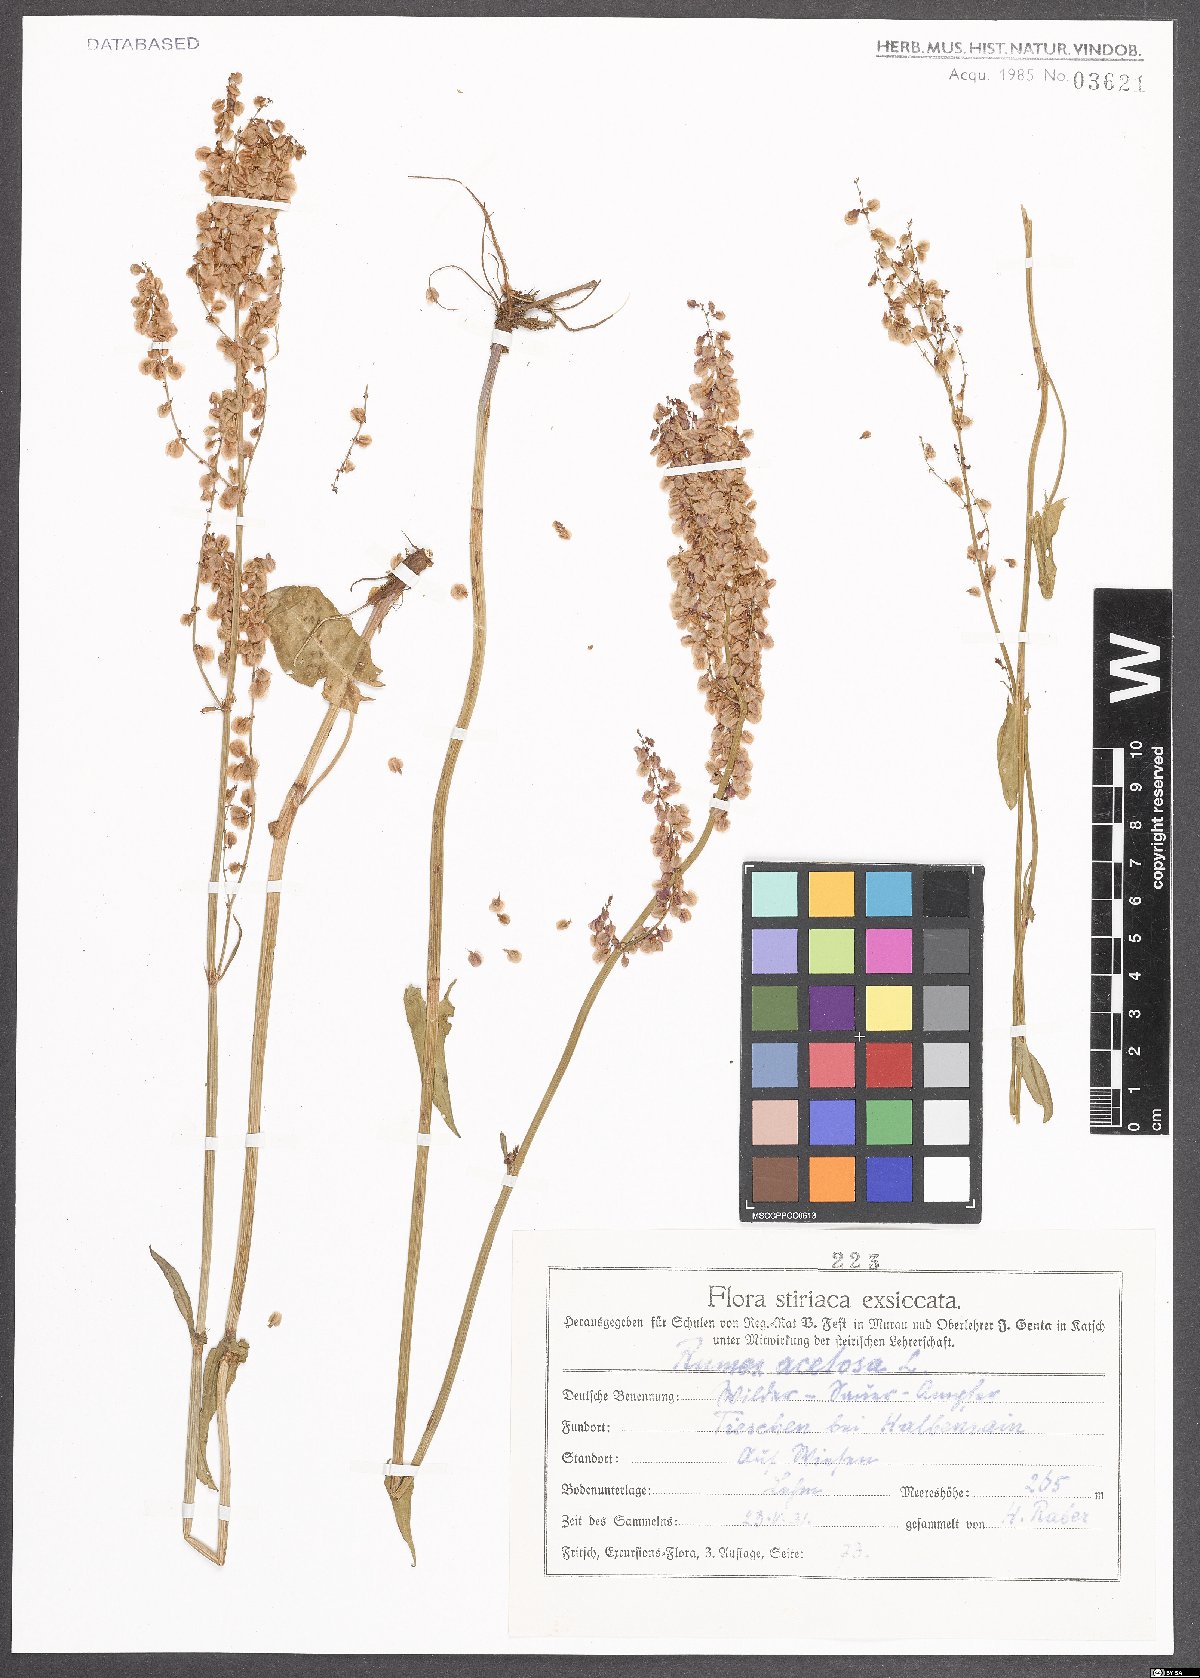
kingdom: Plantae
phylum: Tracheophyta
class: Magnoliopsida
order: Caryophyllales
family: Polygonaceae
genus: Rumex
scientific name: Rumex acetosa
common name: Garden sorrel
